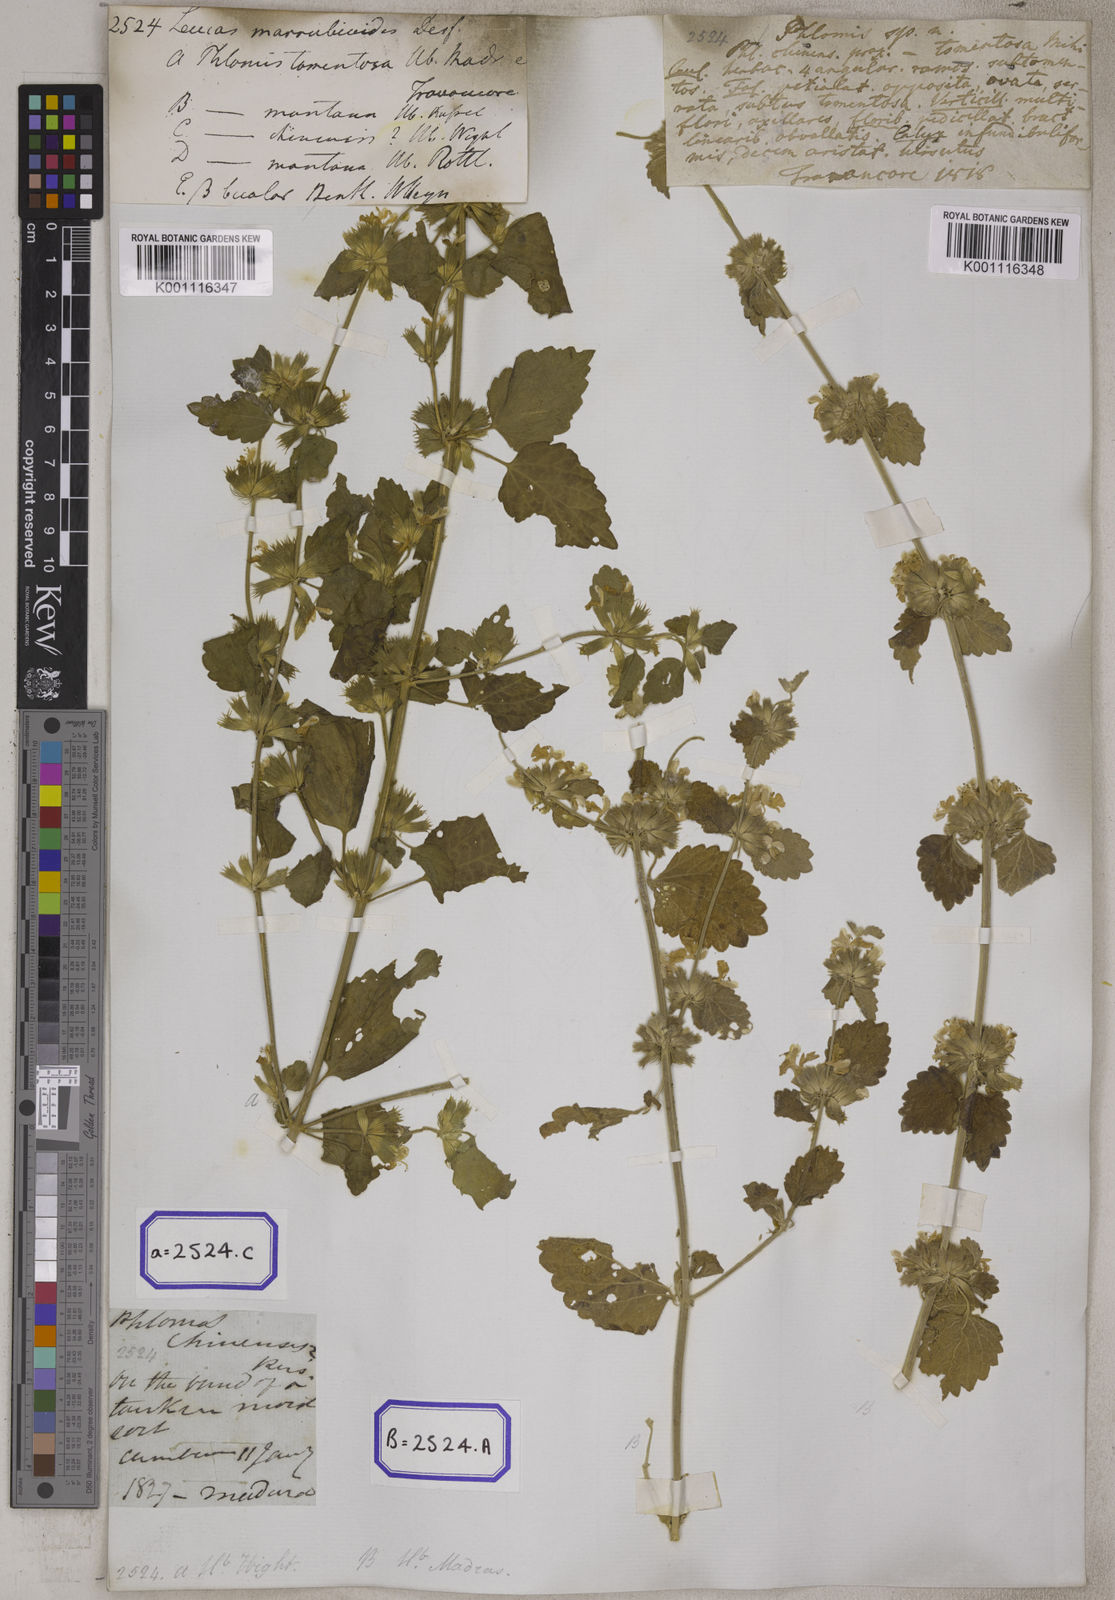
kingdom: Plantae
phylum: Tracheophyta
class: Magnoliopsida
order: Lamiales
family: Lamiaceae
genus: Leucas
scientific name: Leucas marrubioides
